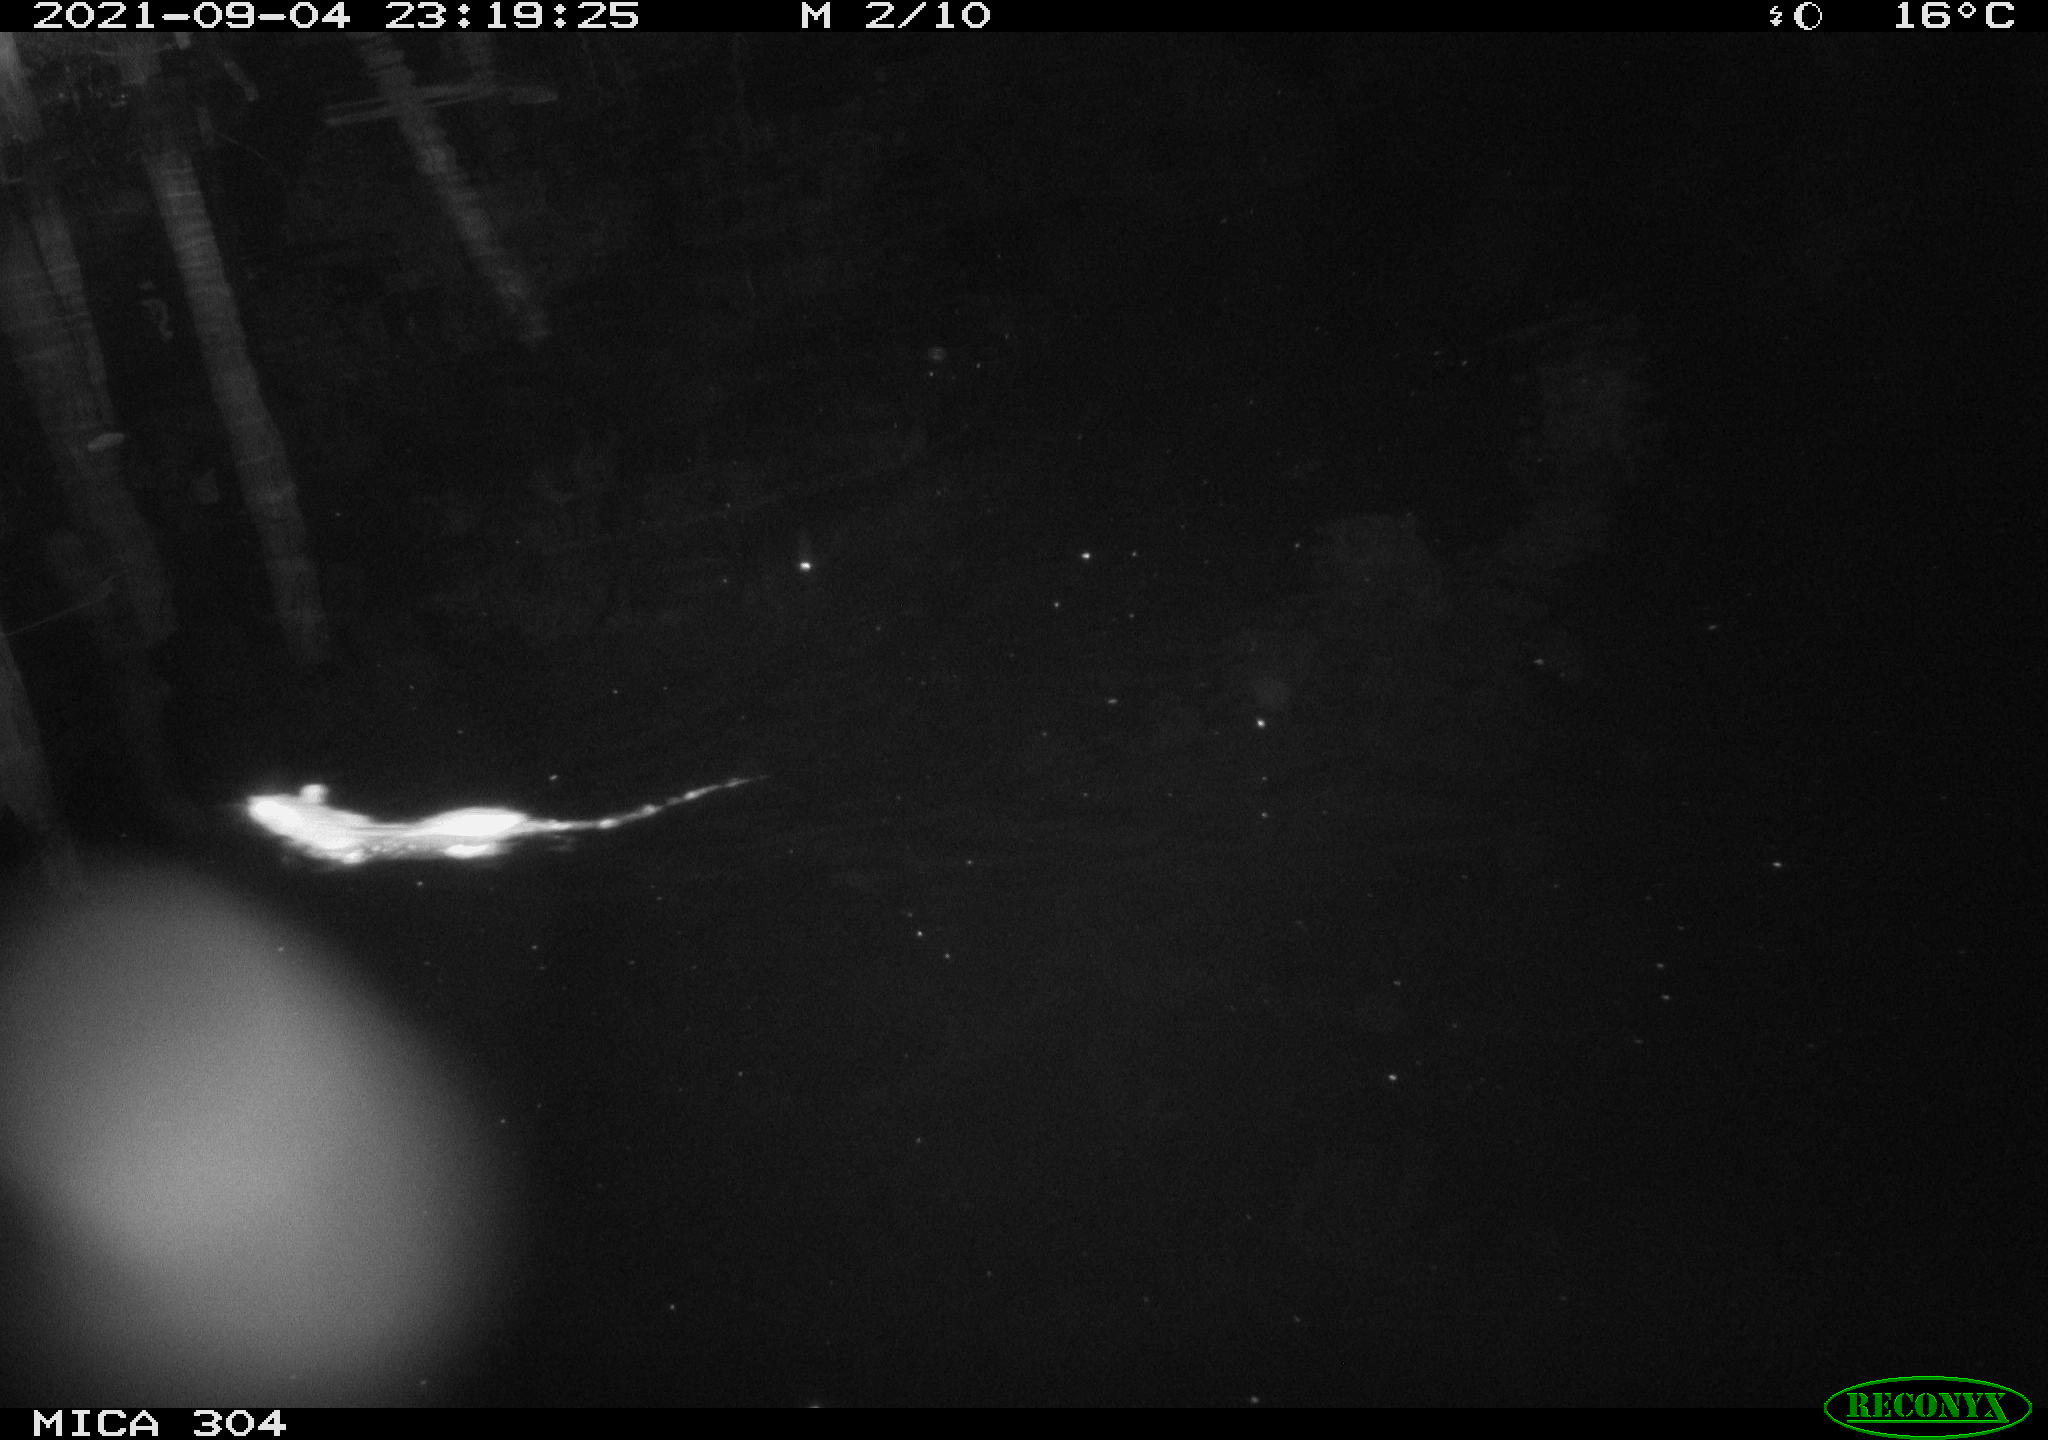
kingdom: Animalia
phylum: Chordata
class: Mammalia
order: Rodentia
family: Muridae
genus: Rattus
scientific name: Rattus norvegicus
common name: Brown rat
